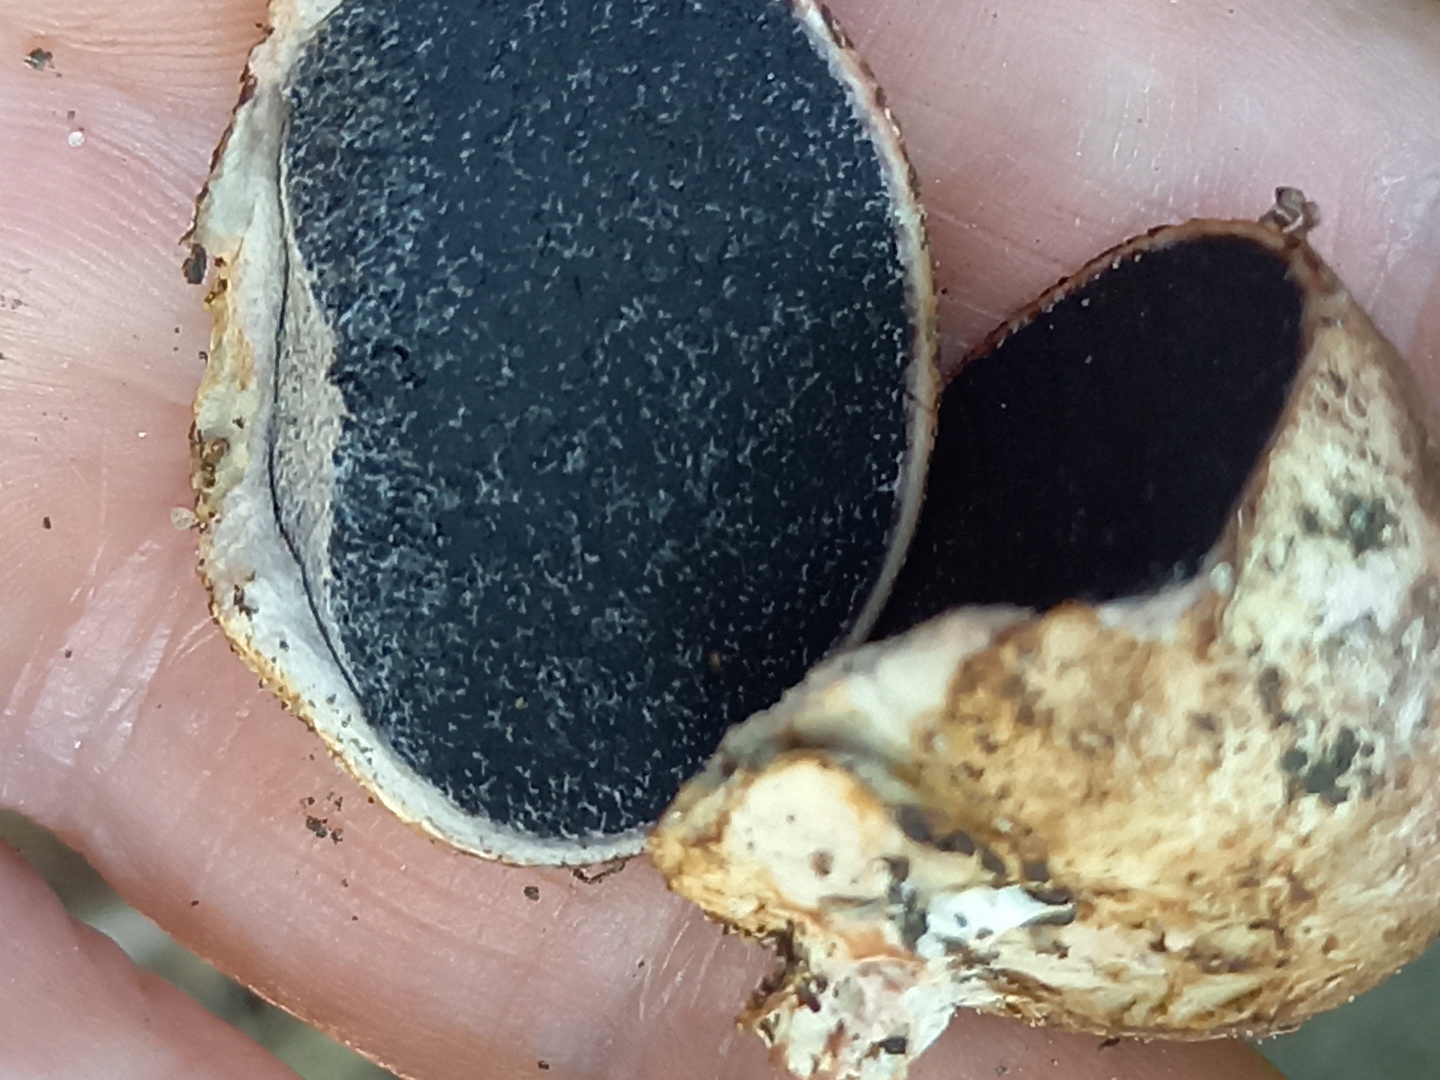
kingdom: Fungi
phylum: Basidiomycota
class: Agaricomycetes
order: Boletales
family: Sclerodermataceae
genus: Scleroderma
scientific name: Scleroderma
